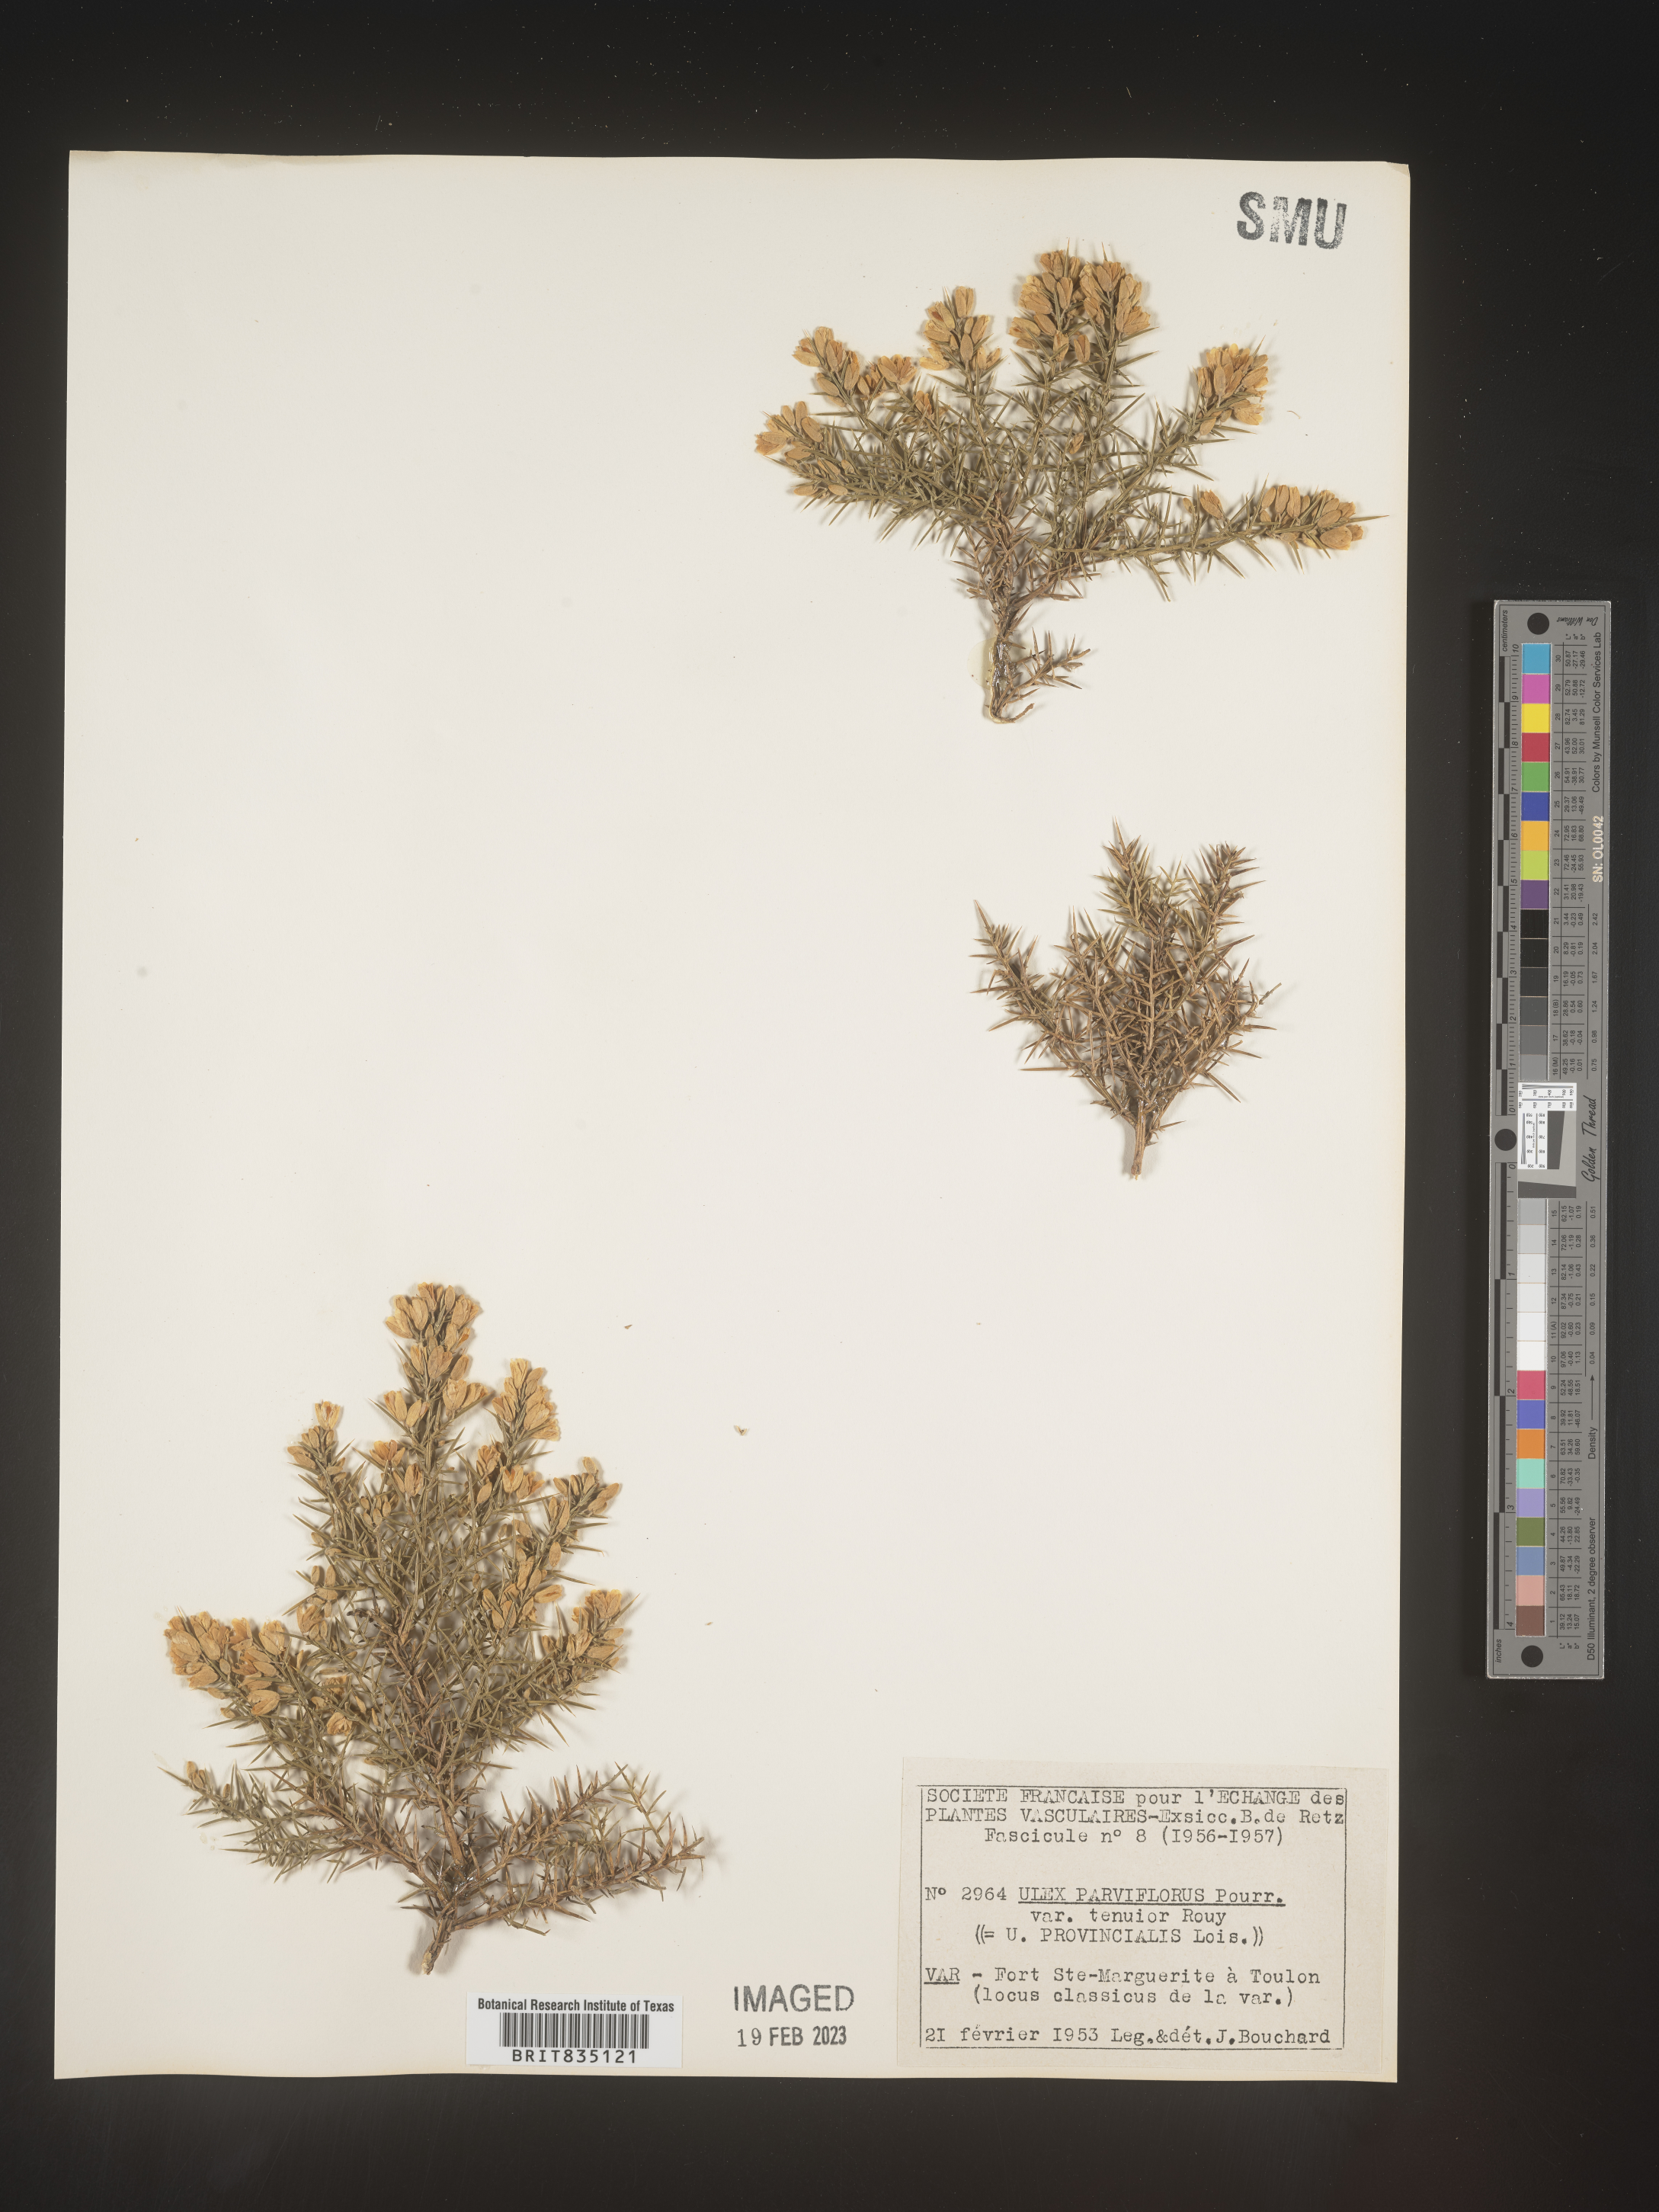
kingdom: Plantae
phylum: Tracheophyta
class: Magnoliopsida
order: Fabales
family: Fabaceae
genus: Ulex
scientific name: Ulex
